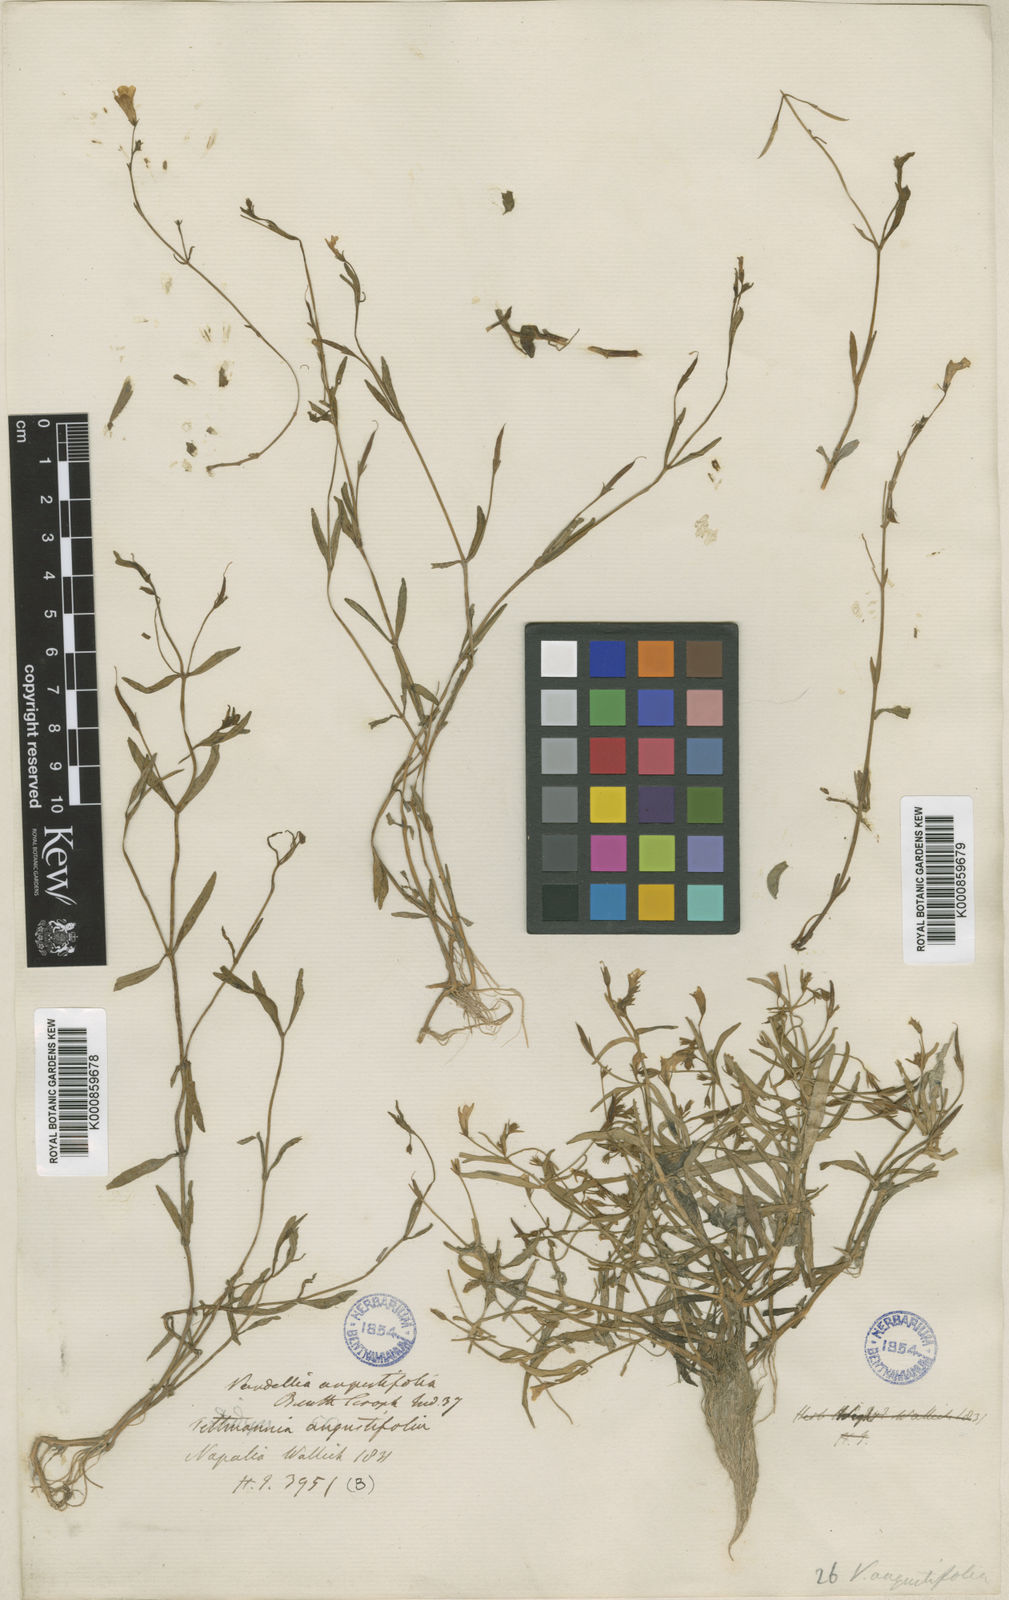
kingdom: Plantae
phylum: Tracheophyta
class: Magnoliopsida
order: Lamiales
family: Linderniaceae
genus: Torenia
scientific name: Torenia anagallis
